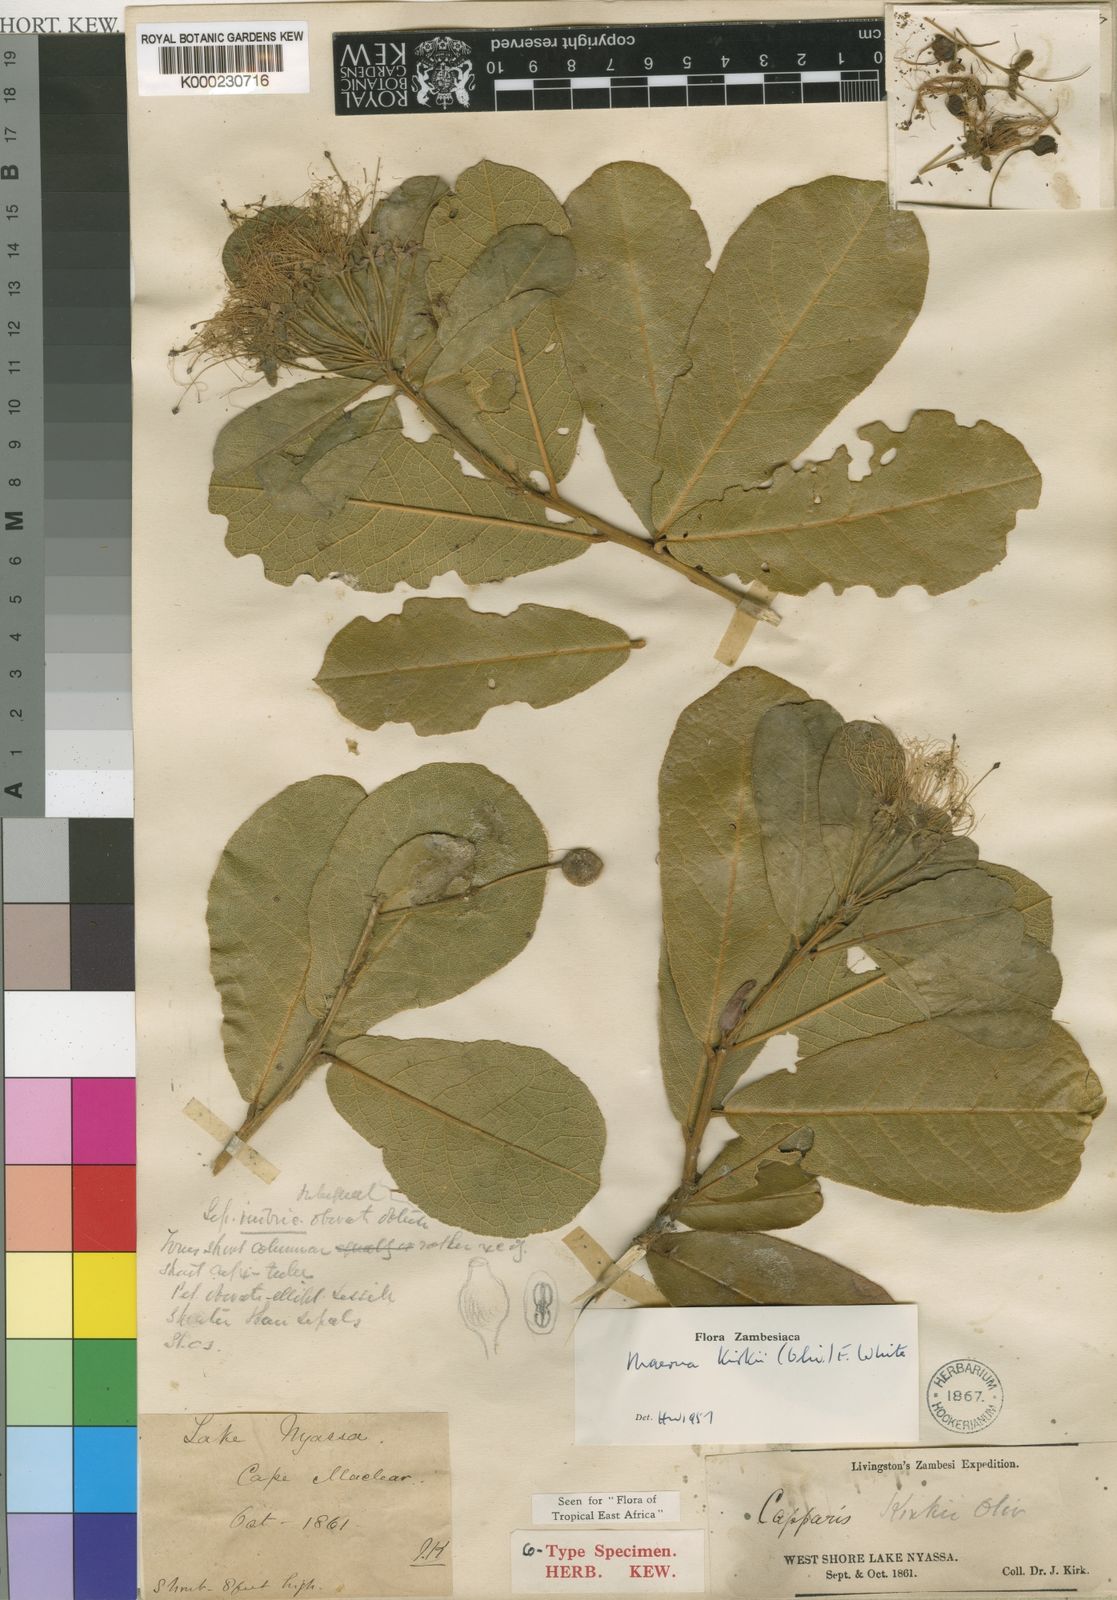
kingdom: Plantae
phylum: Tracheophyta
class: Magnoliopsida
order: Brassicales
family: Capparaceae
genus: Maerua
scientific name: Maerua kirkii
